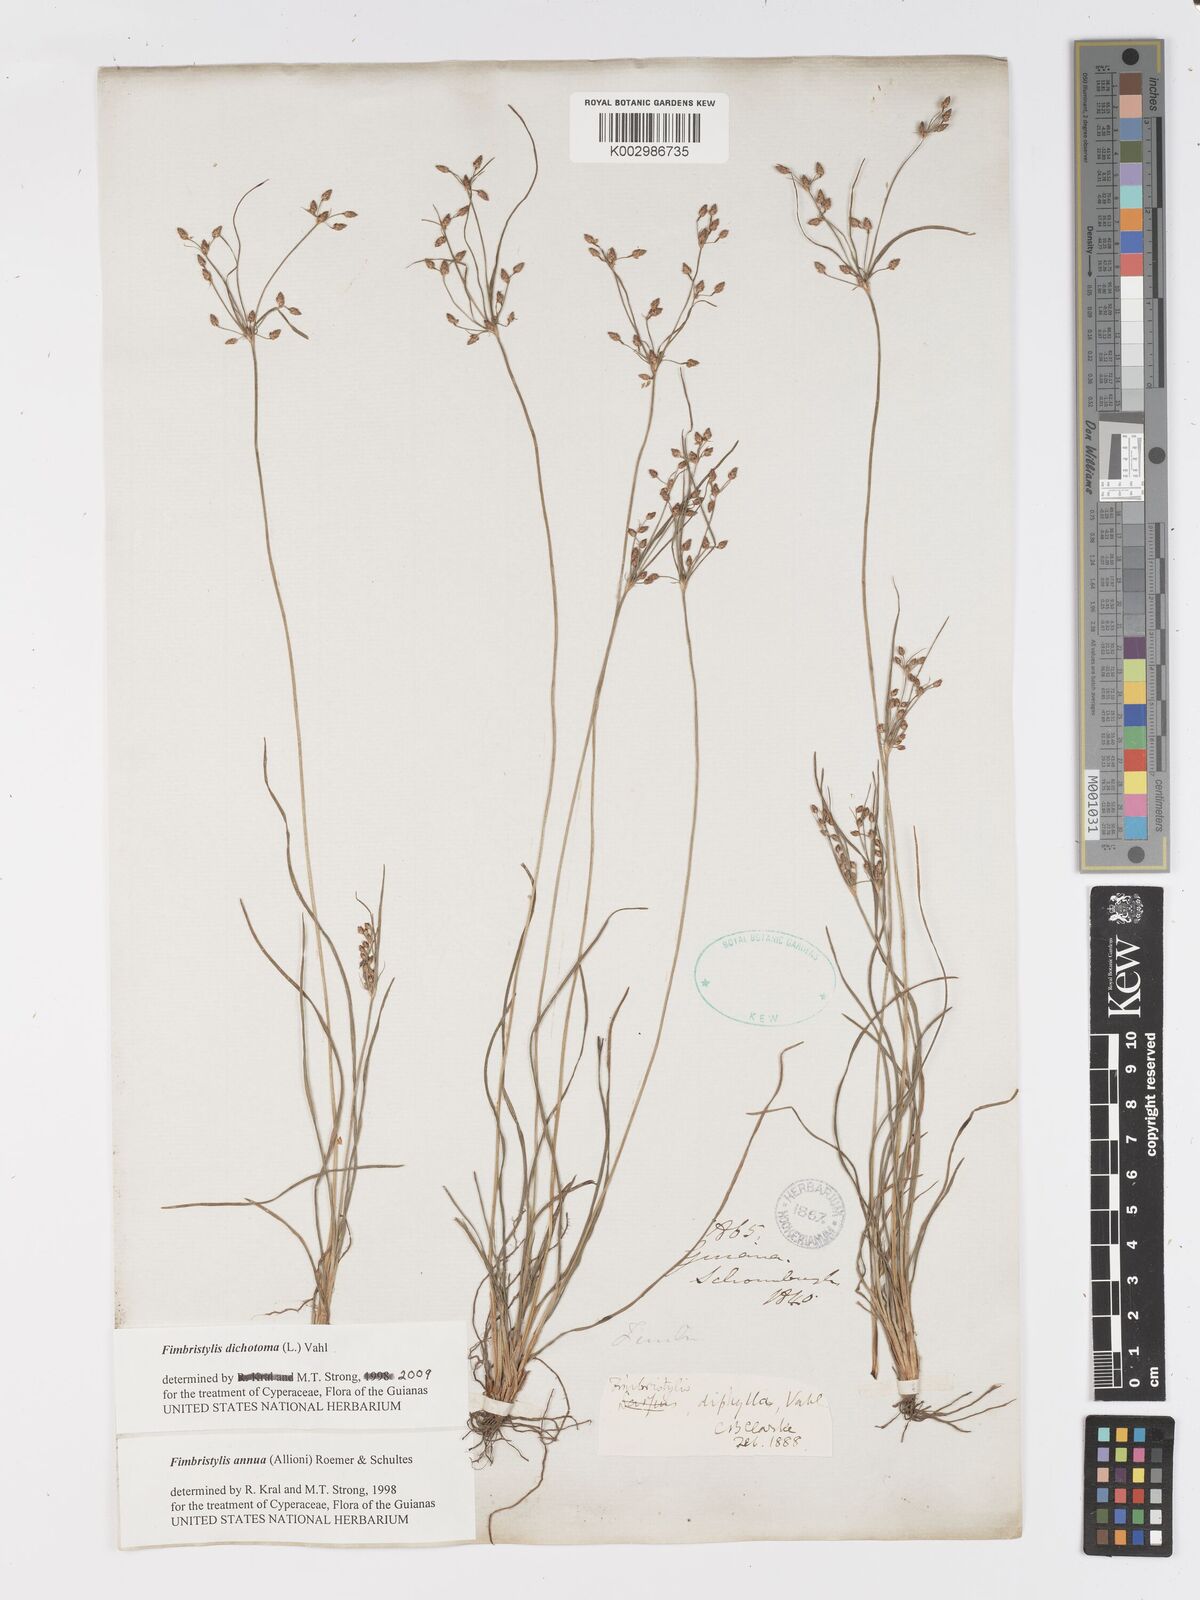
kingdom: Plantae
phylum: Tracheophyta
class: Liliopsida
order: Poales
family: Cyperaceae
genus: Fimbristylis
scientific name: Fimbristylis dichotoma
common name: Forked fimbry
